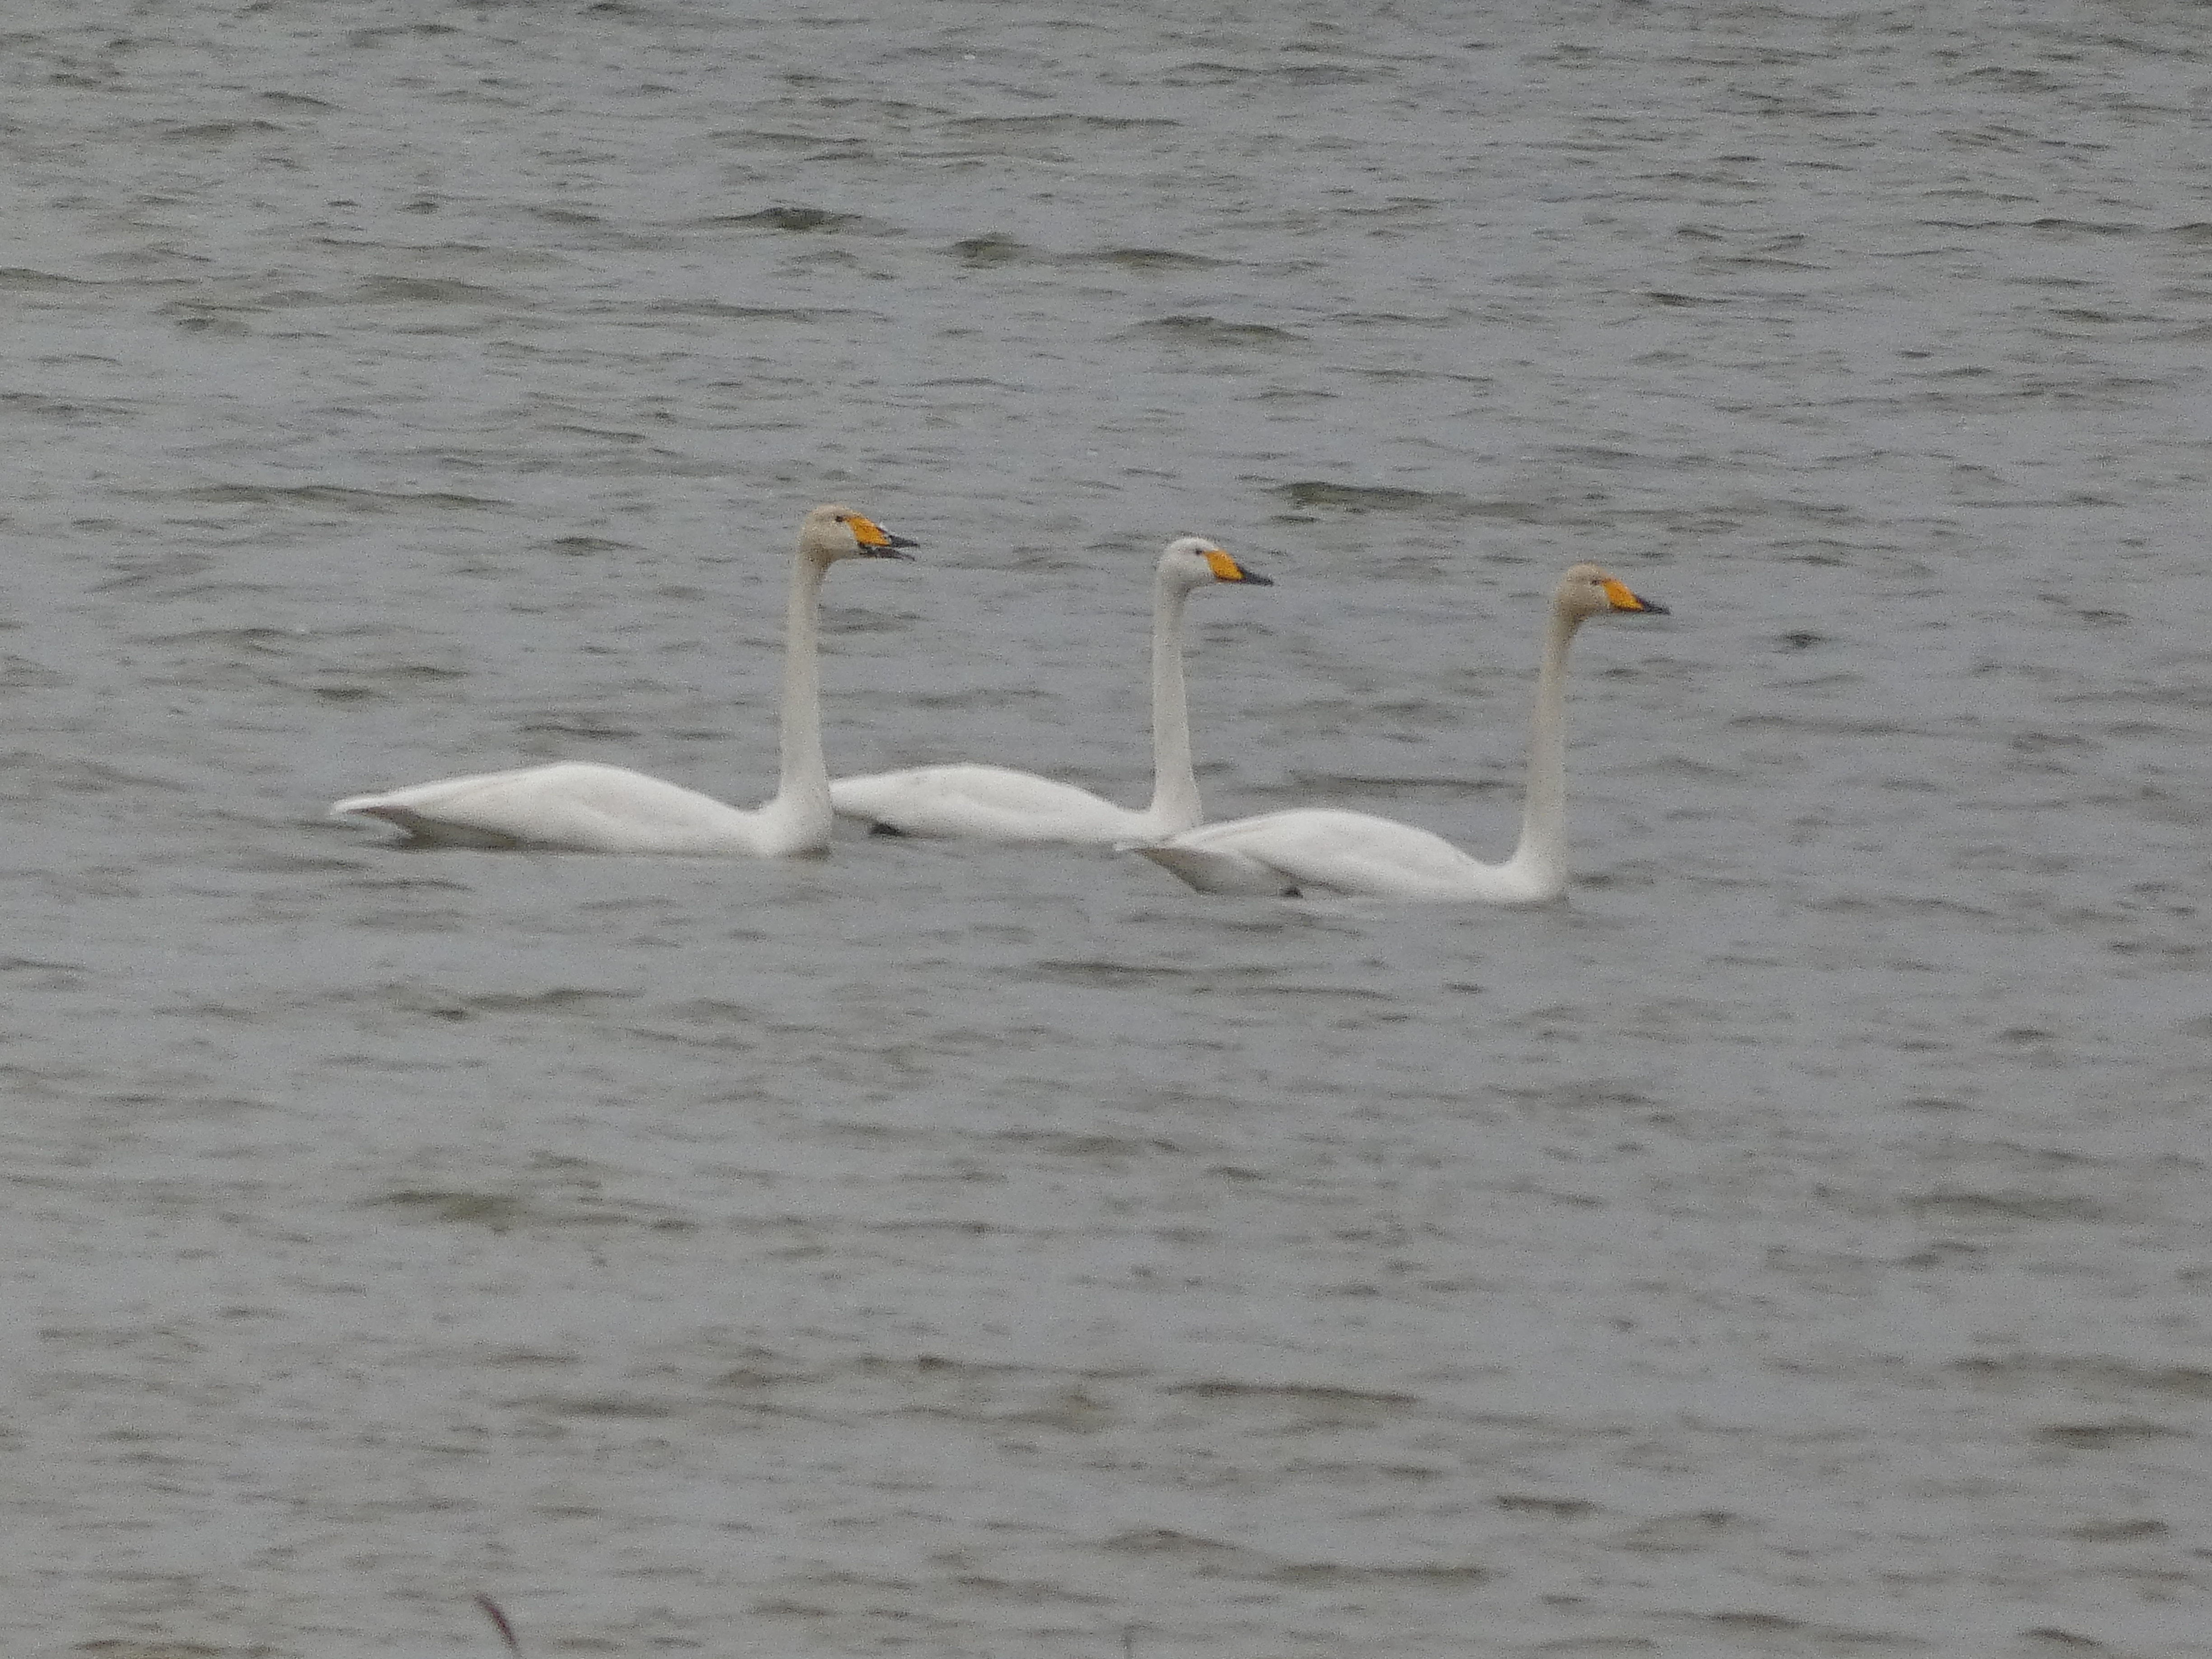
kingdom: Animalia
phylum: Chordata
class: Aves
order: Anseriformes
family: Anatidae
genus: Cygnus
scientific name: Cygnus cygnus
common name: Sangsvane
